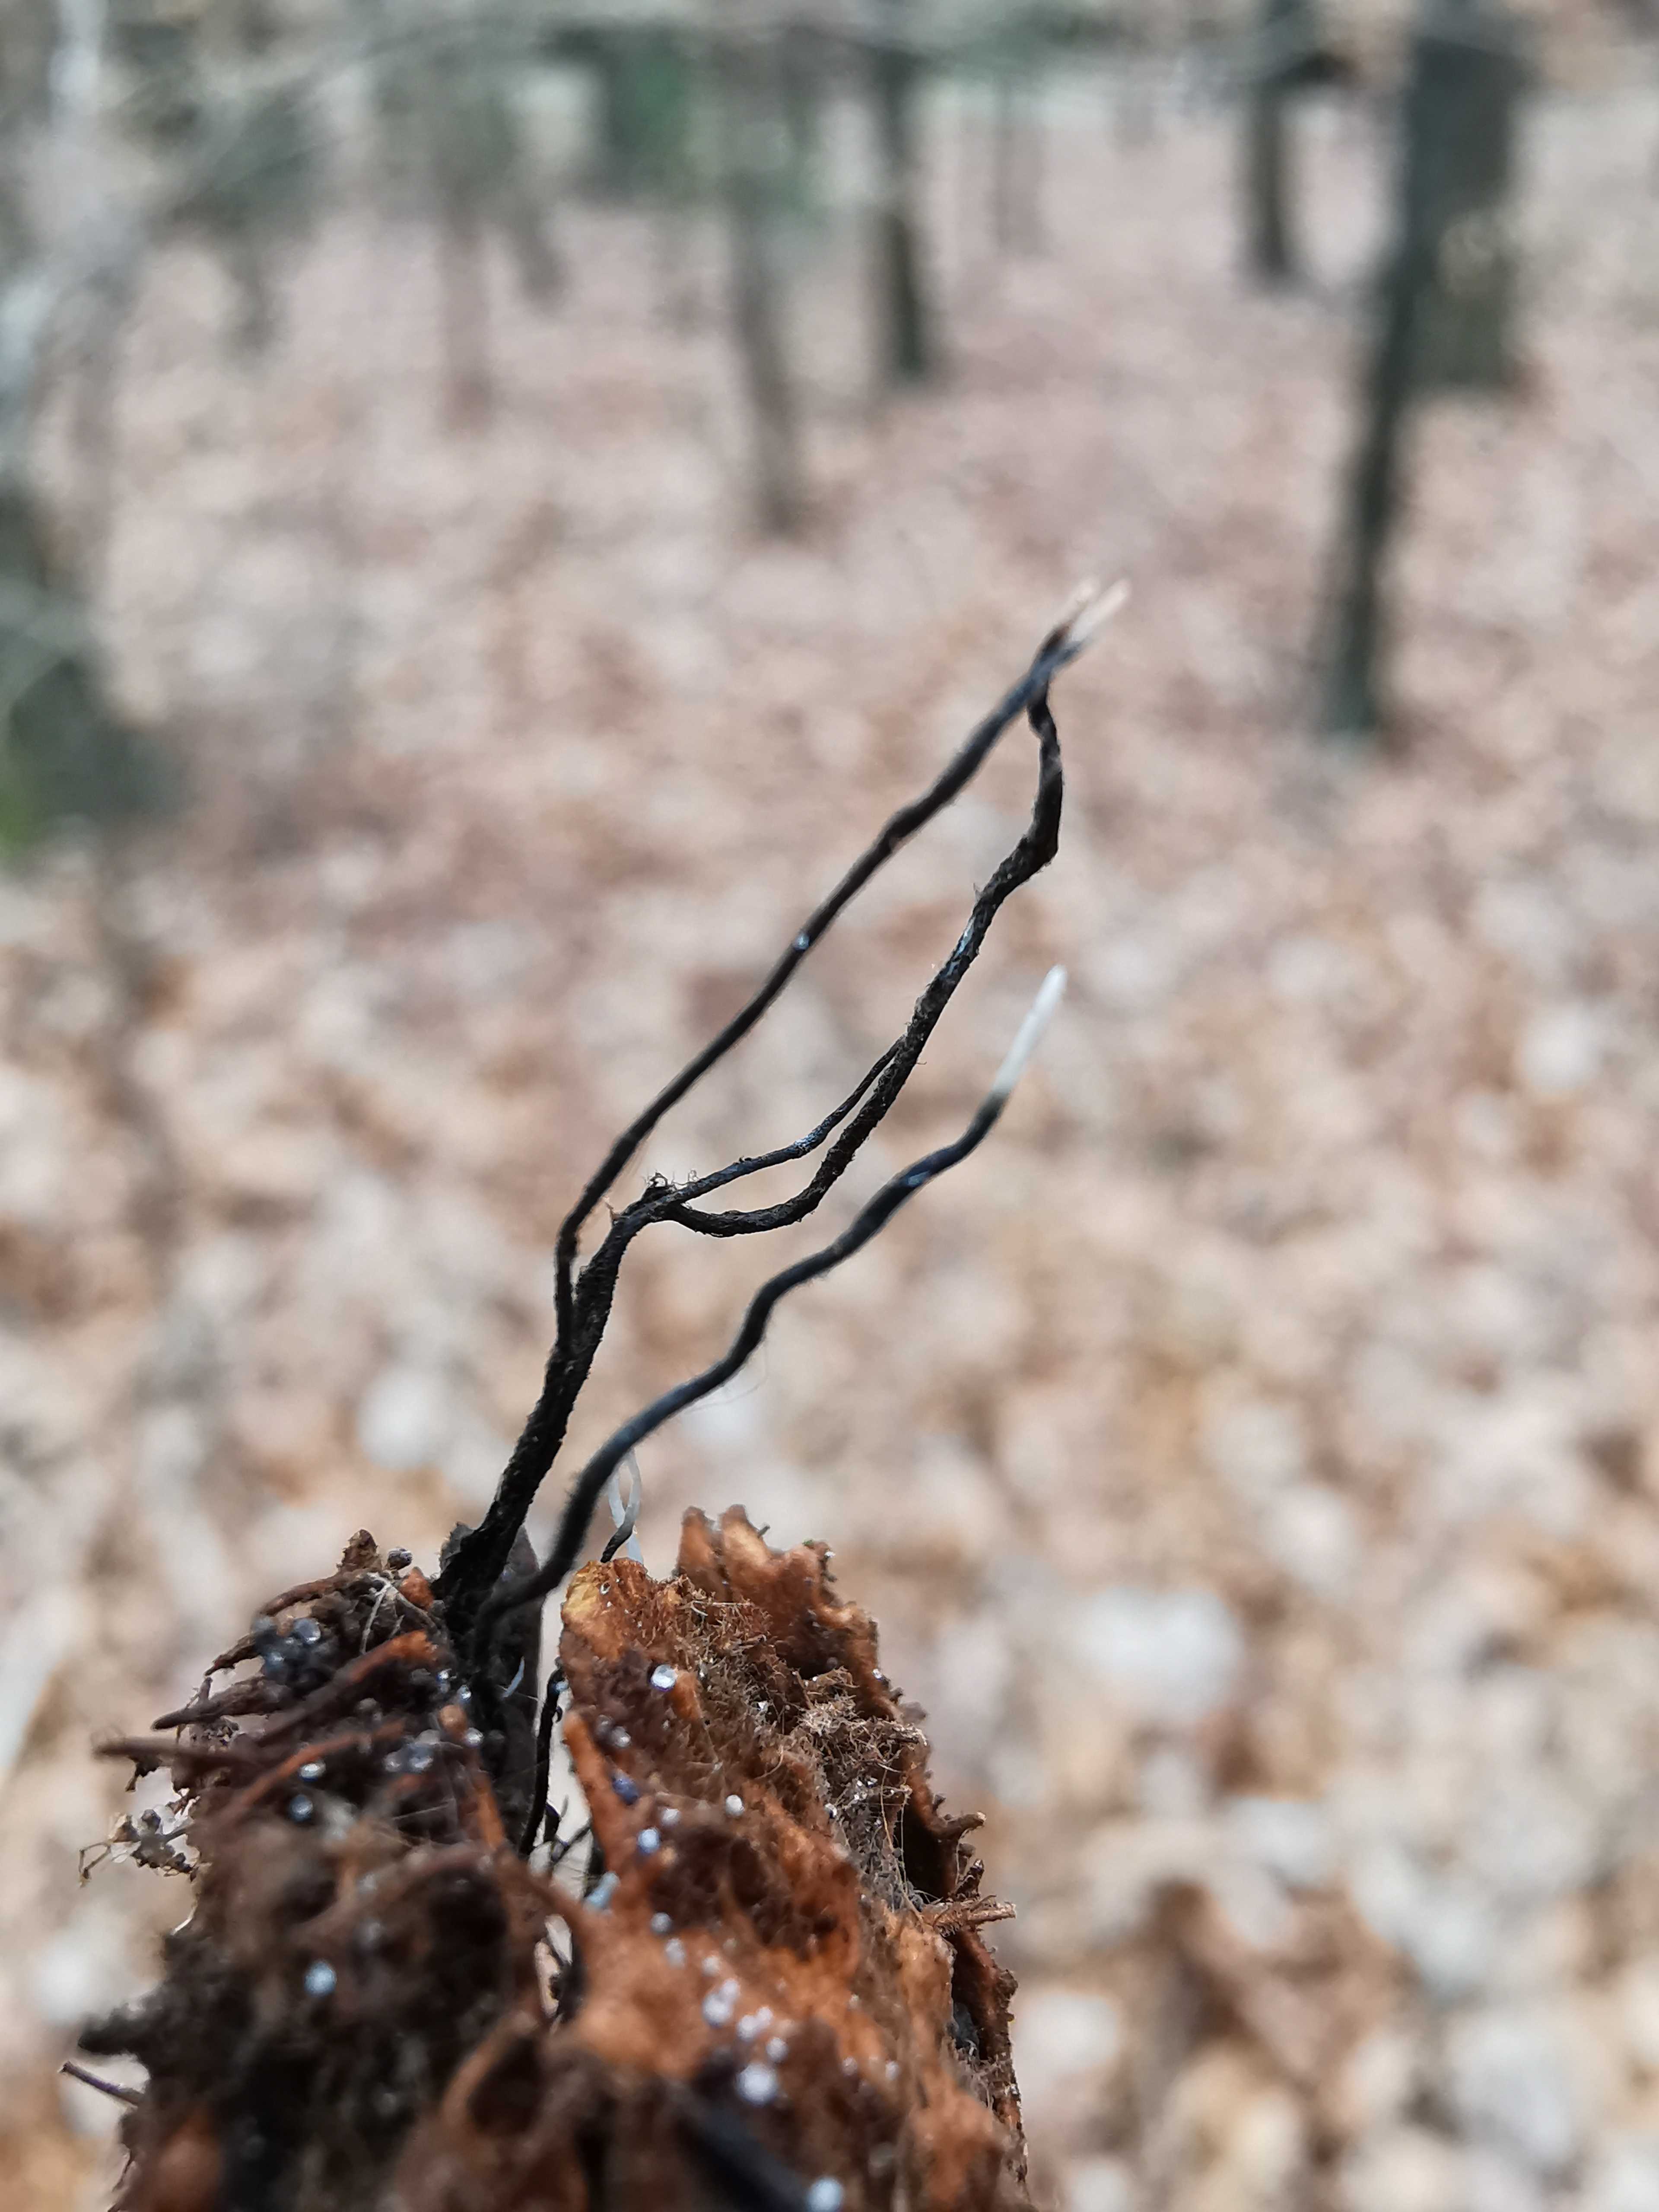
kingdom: Fungi
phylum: Ascomycota
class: Sordariomycetes
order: Xylariales
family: Xylariaceae
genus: Xylaria
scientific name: Xylaria carpophila
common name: bogskål-stødsvamp
